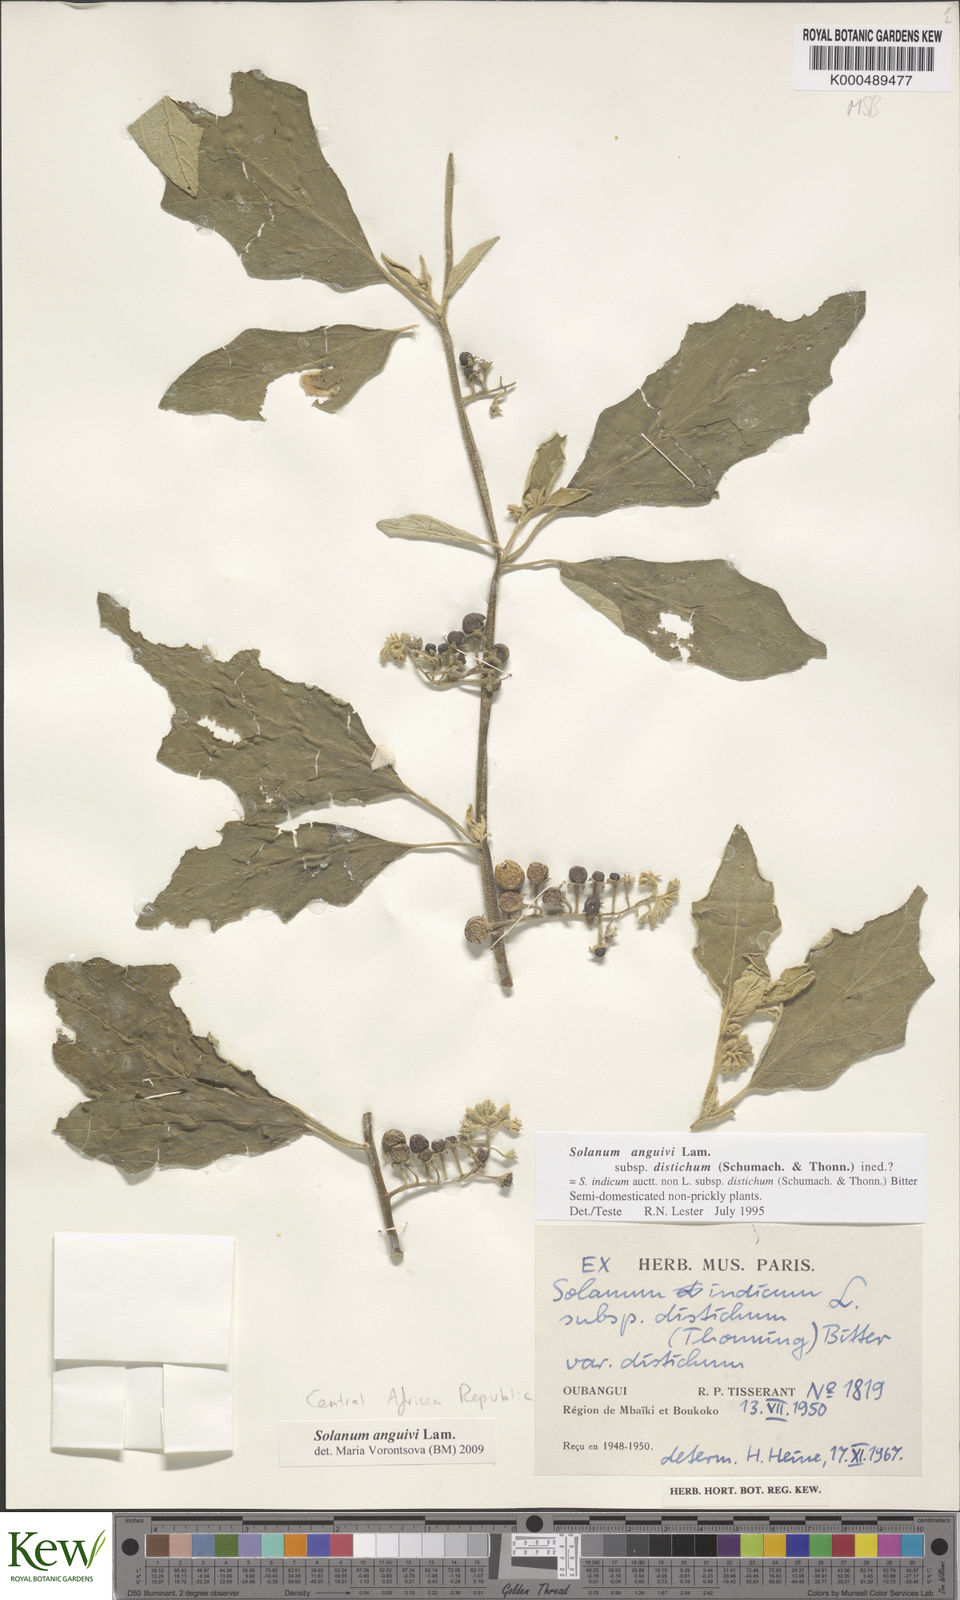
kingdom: Plantae
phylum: Tracheophyta
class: Magnoliopsida
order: Solanales
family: Solanaceae
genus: Solanum
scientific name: Solanum anguivi
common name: Forest bitterberry
